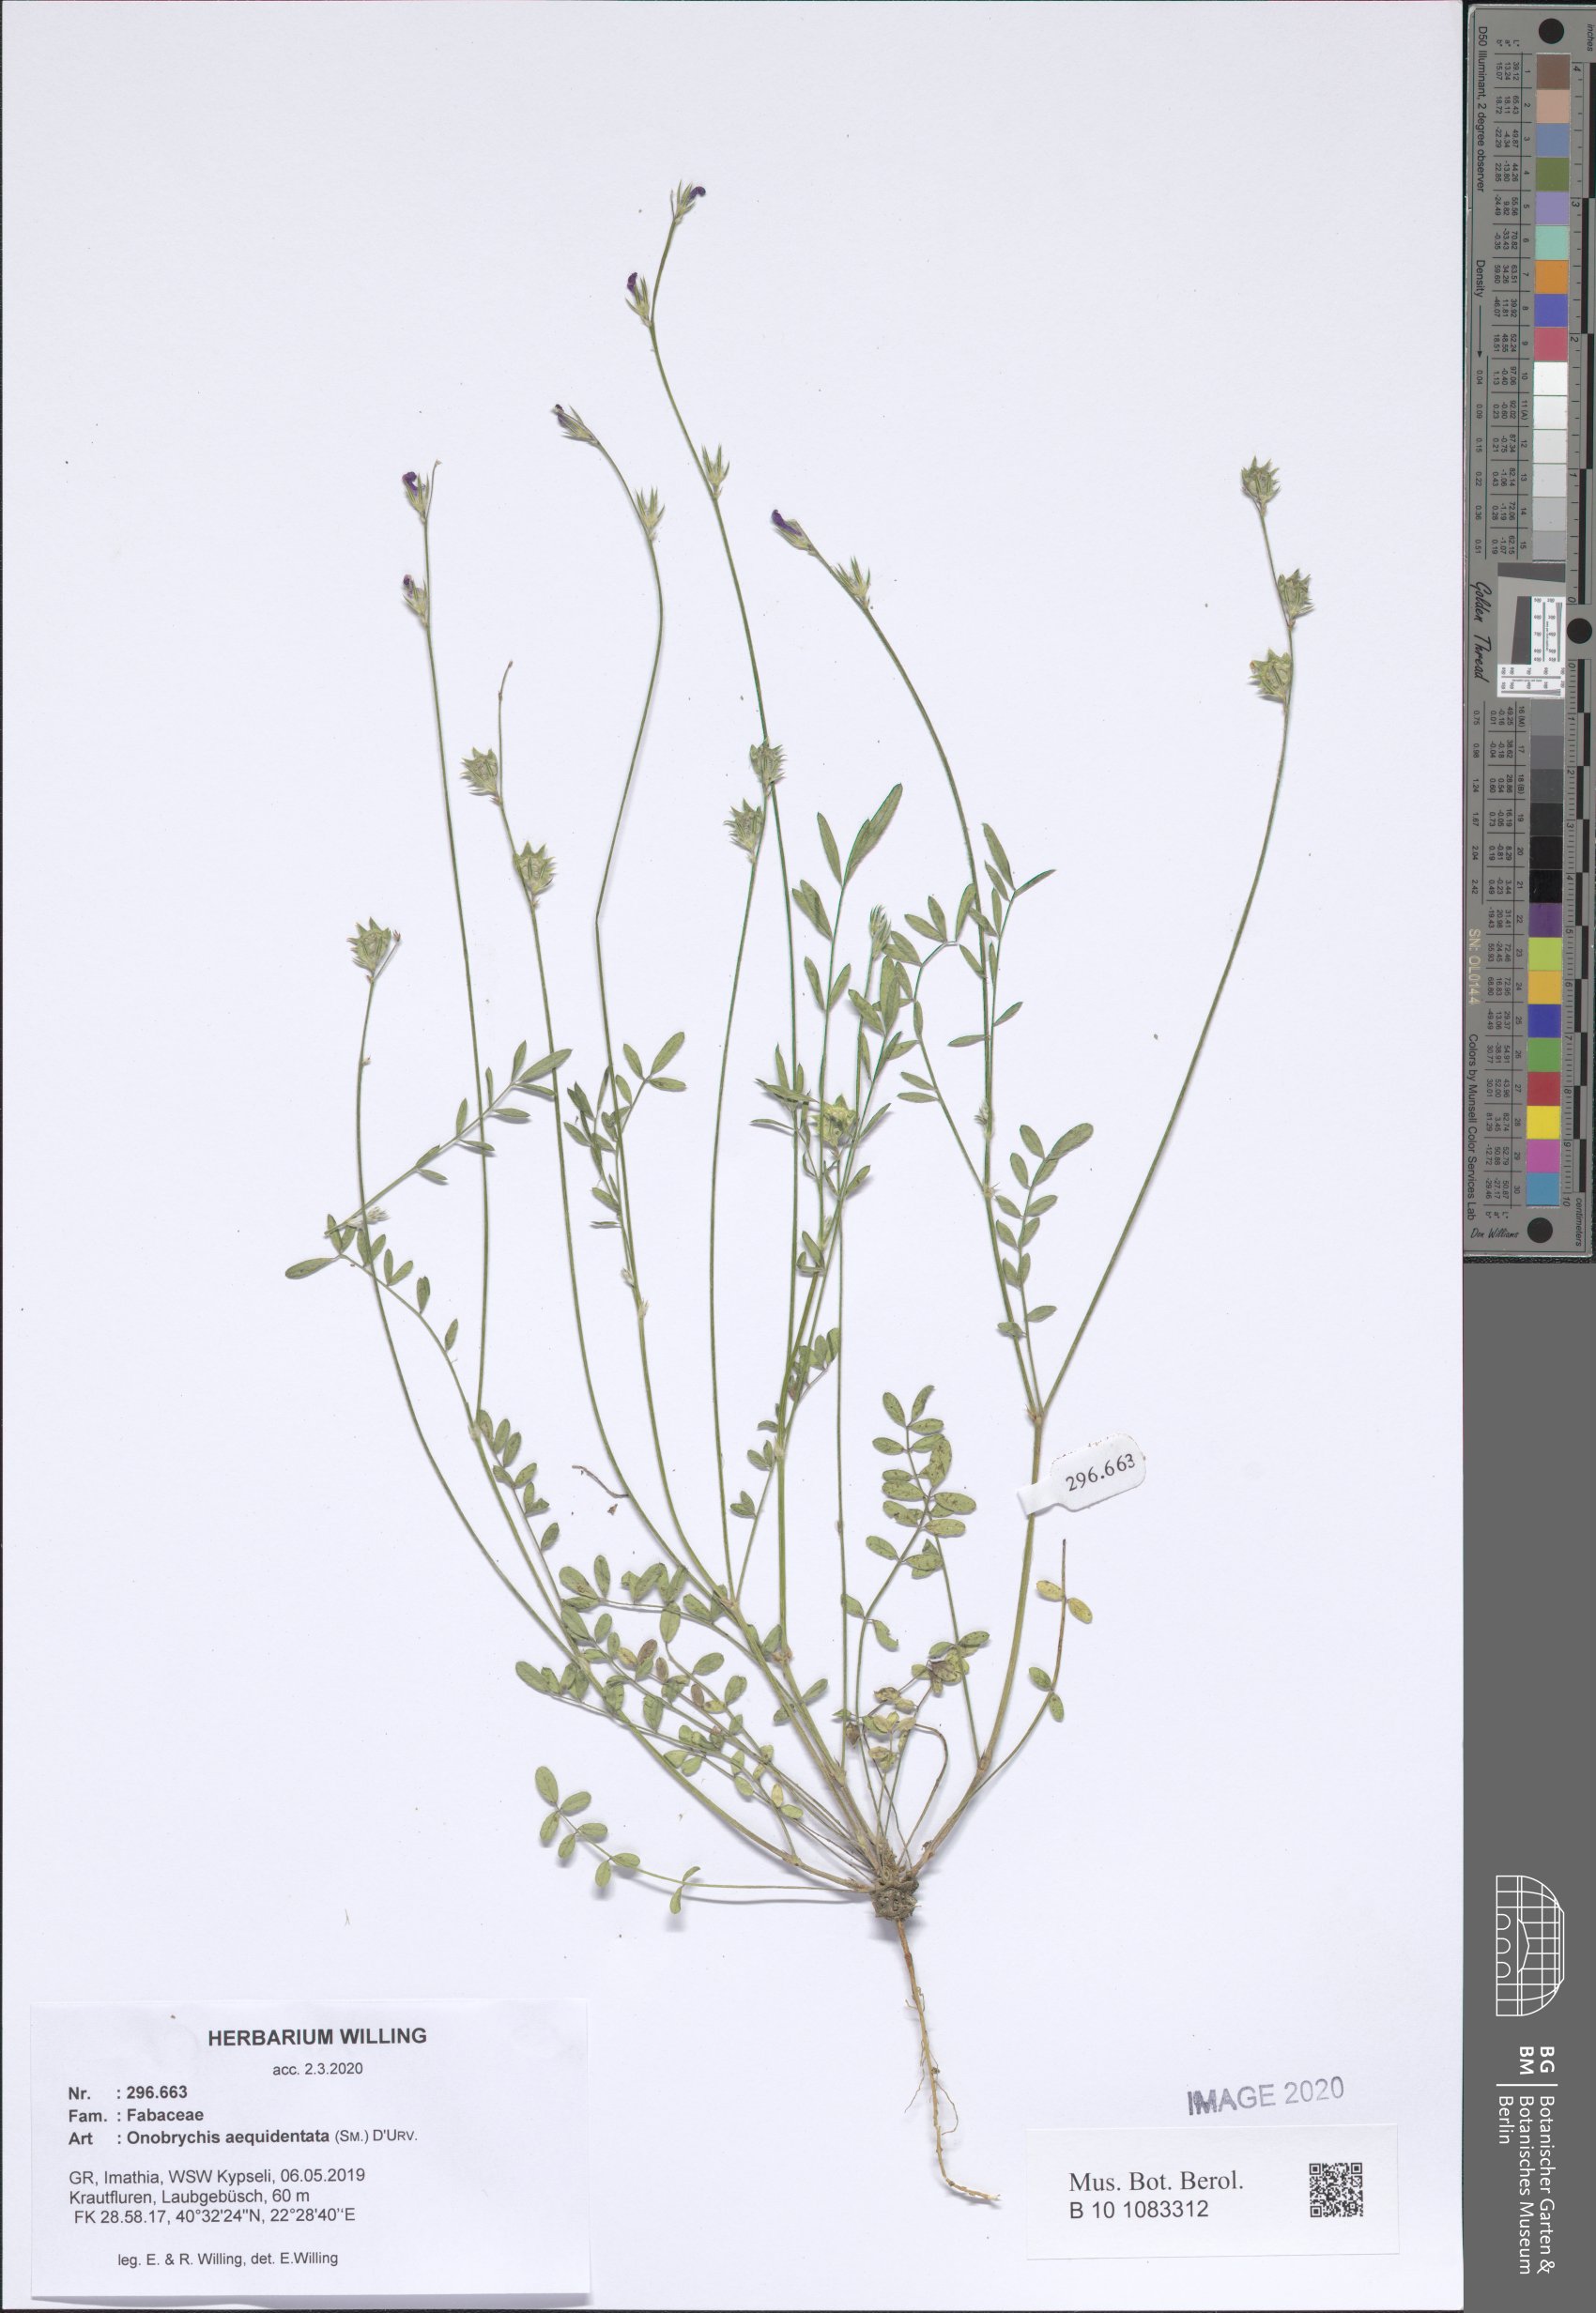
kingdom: Plantae
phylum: Tracheophyta
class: Magnoliopsida
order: Fabales
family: Fabaceae
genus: Onobrychis
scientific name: Onobrychis aequidentata
